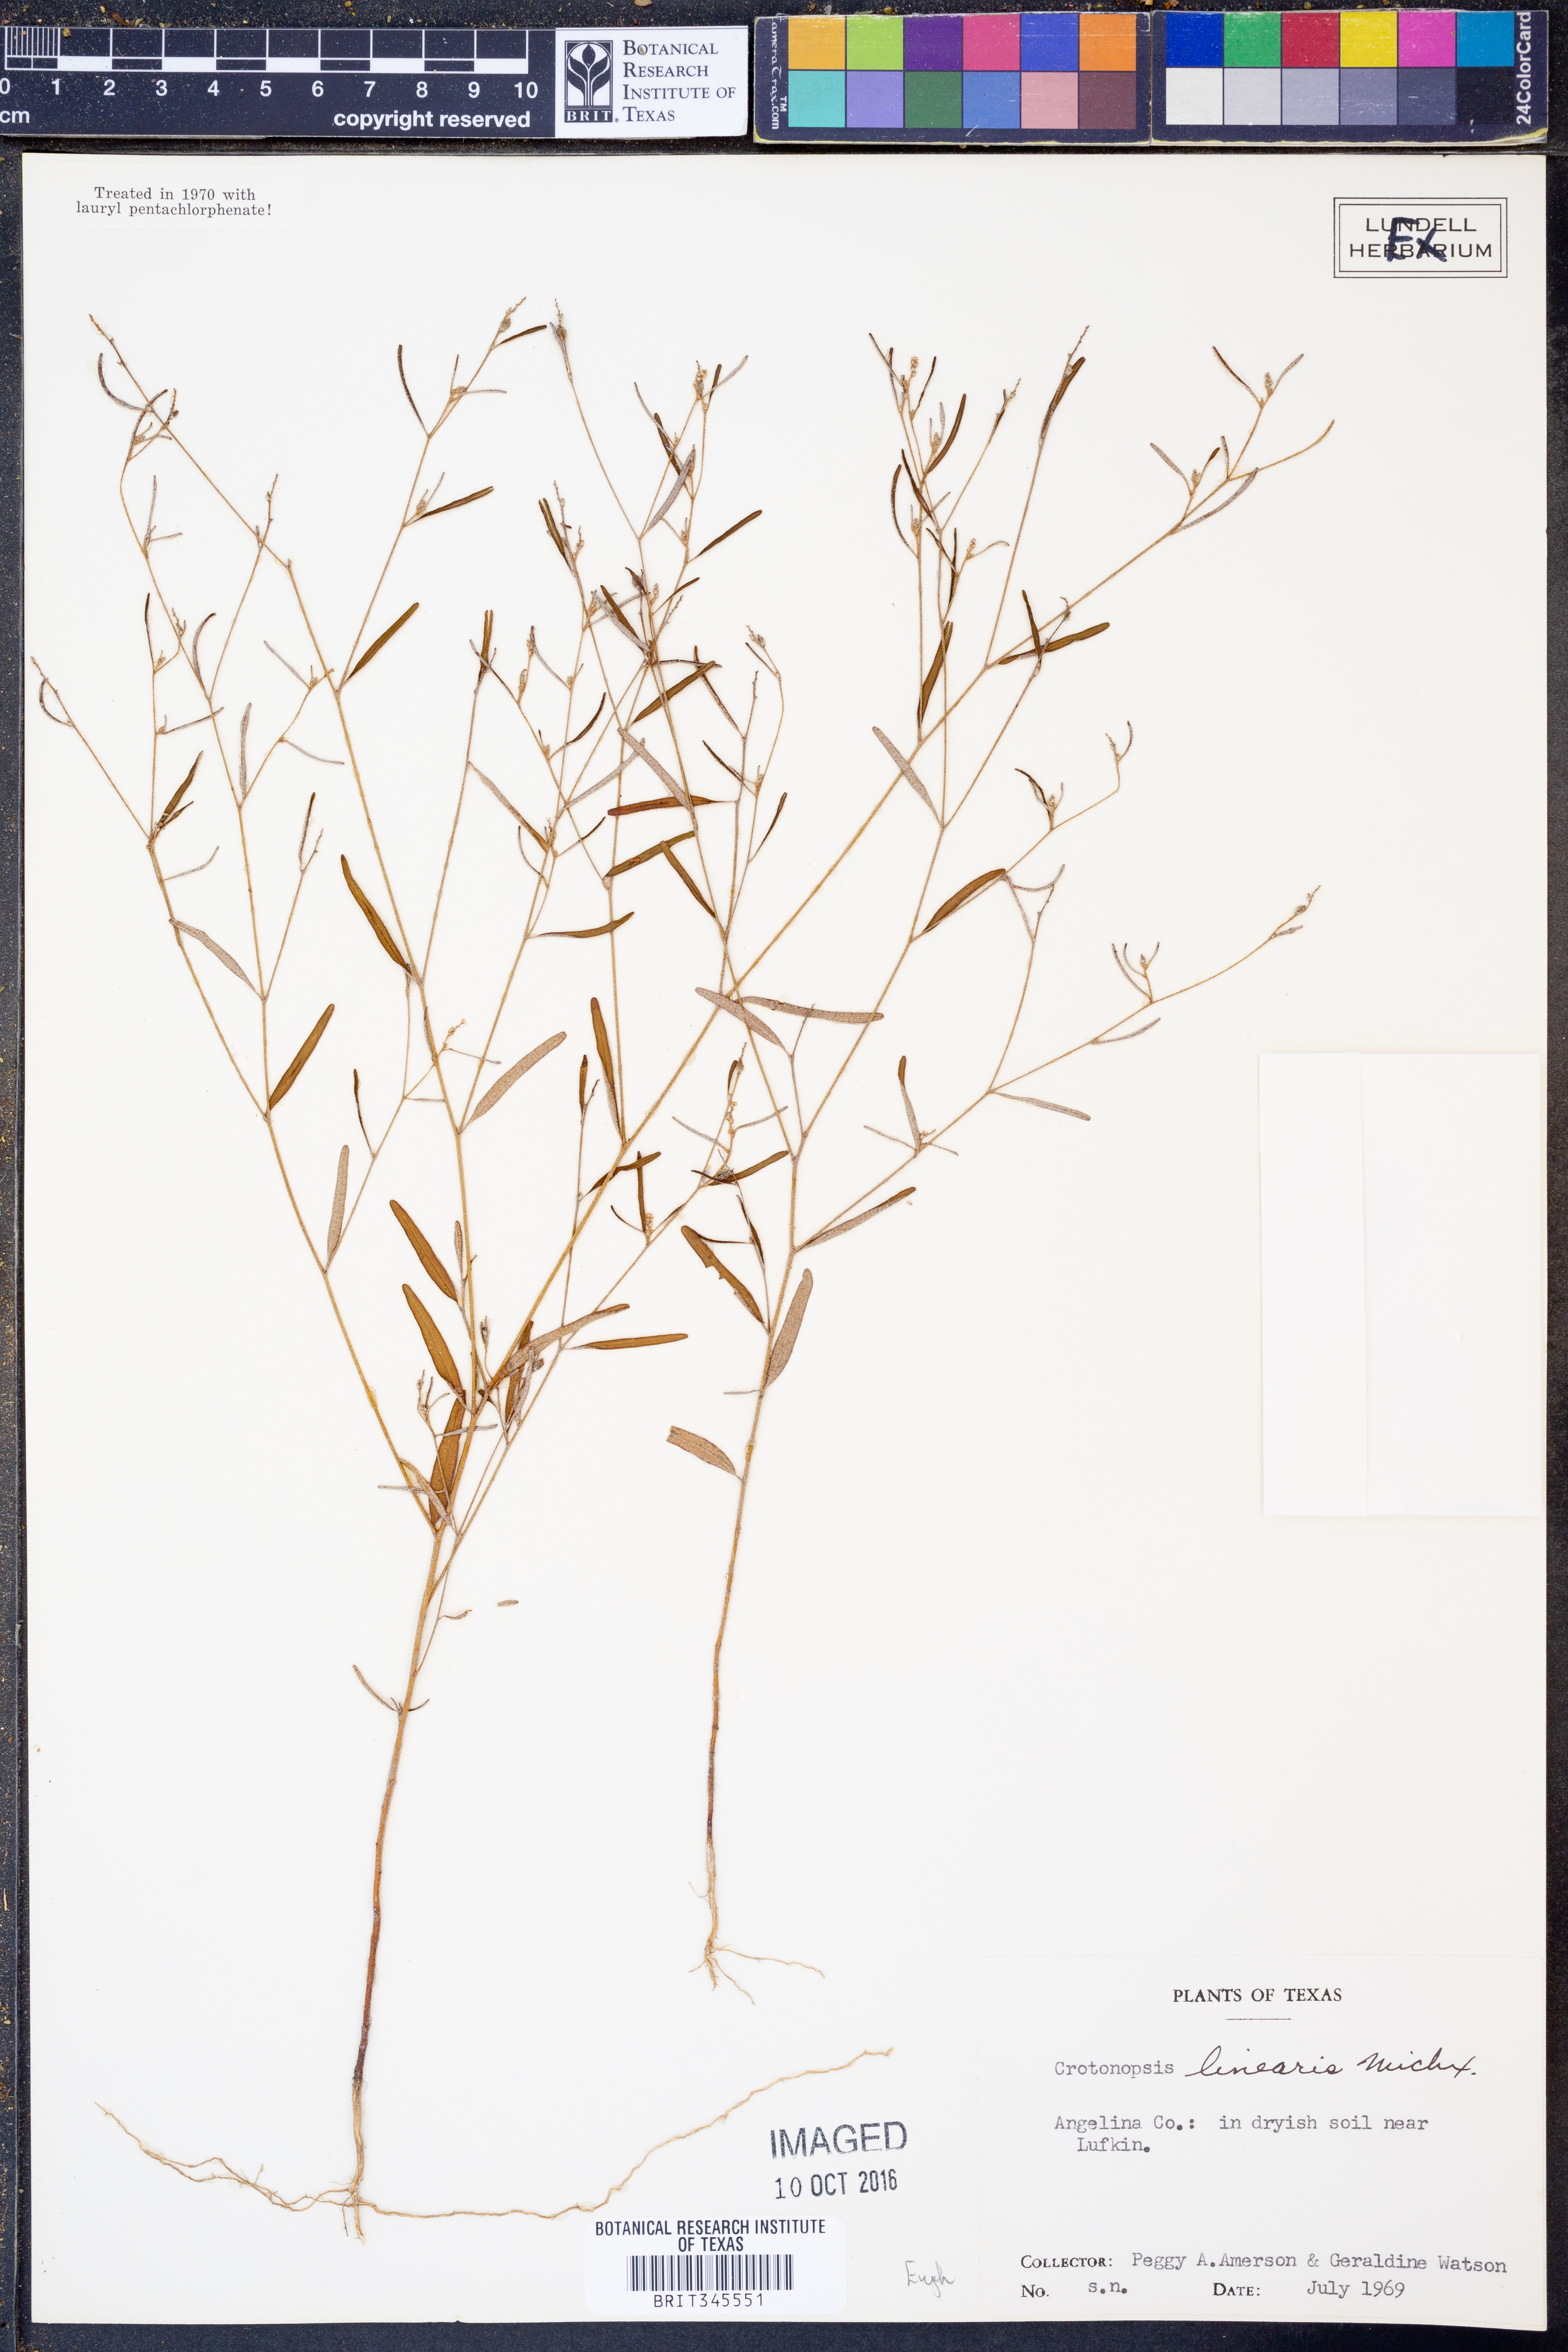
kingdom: Plantae
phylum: Tracheophyta
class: Magnoliopsida
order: Malpighiales
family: Euphorbiaceae
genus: Croton
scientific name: Croton michauxii
